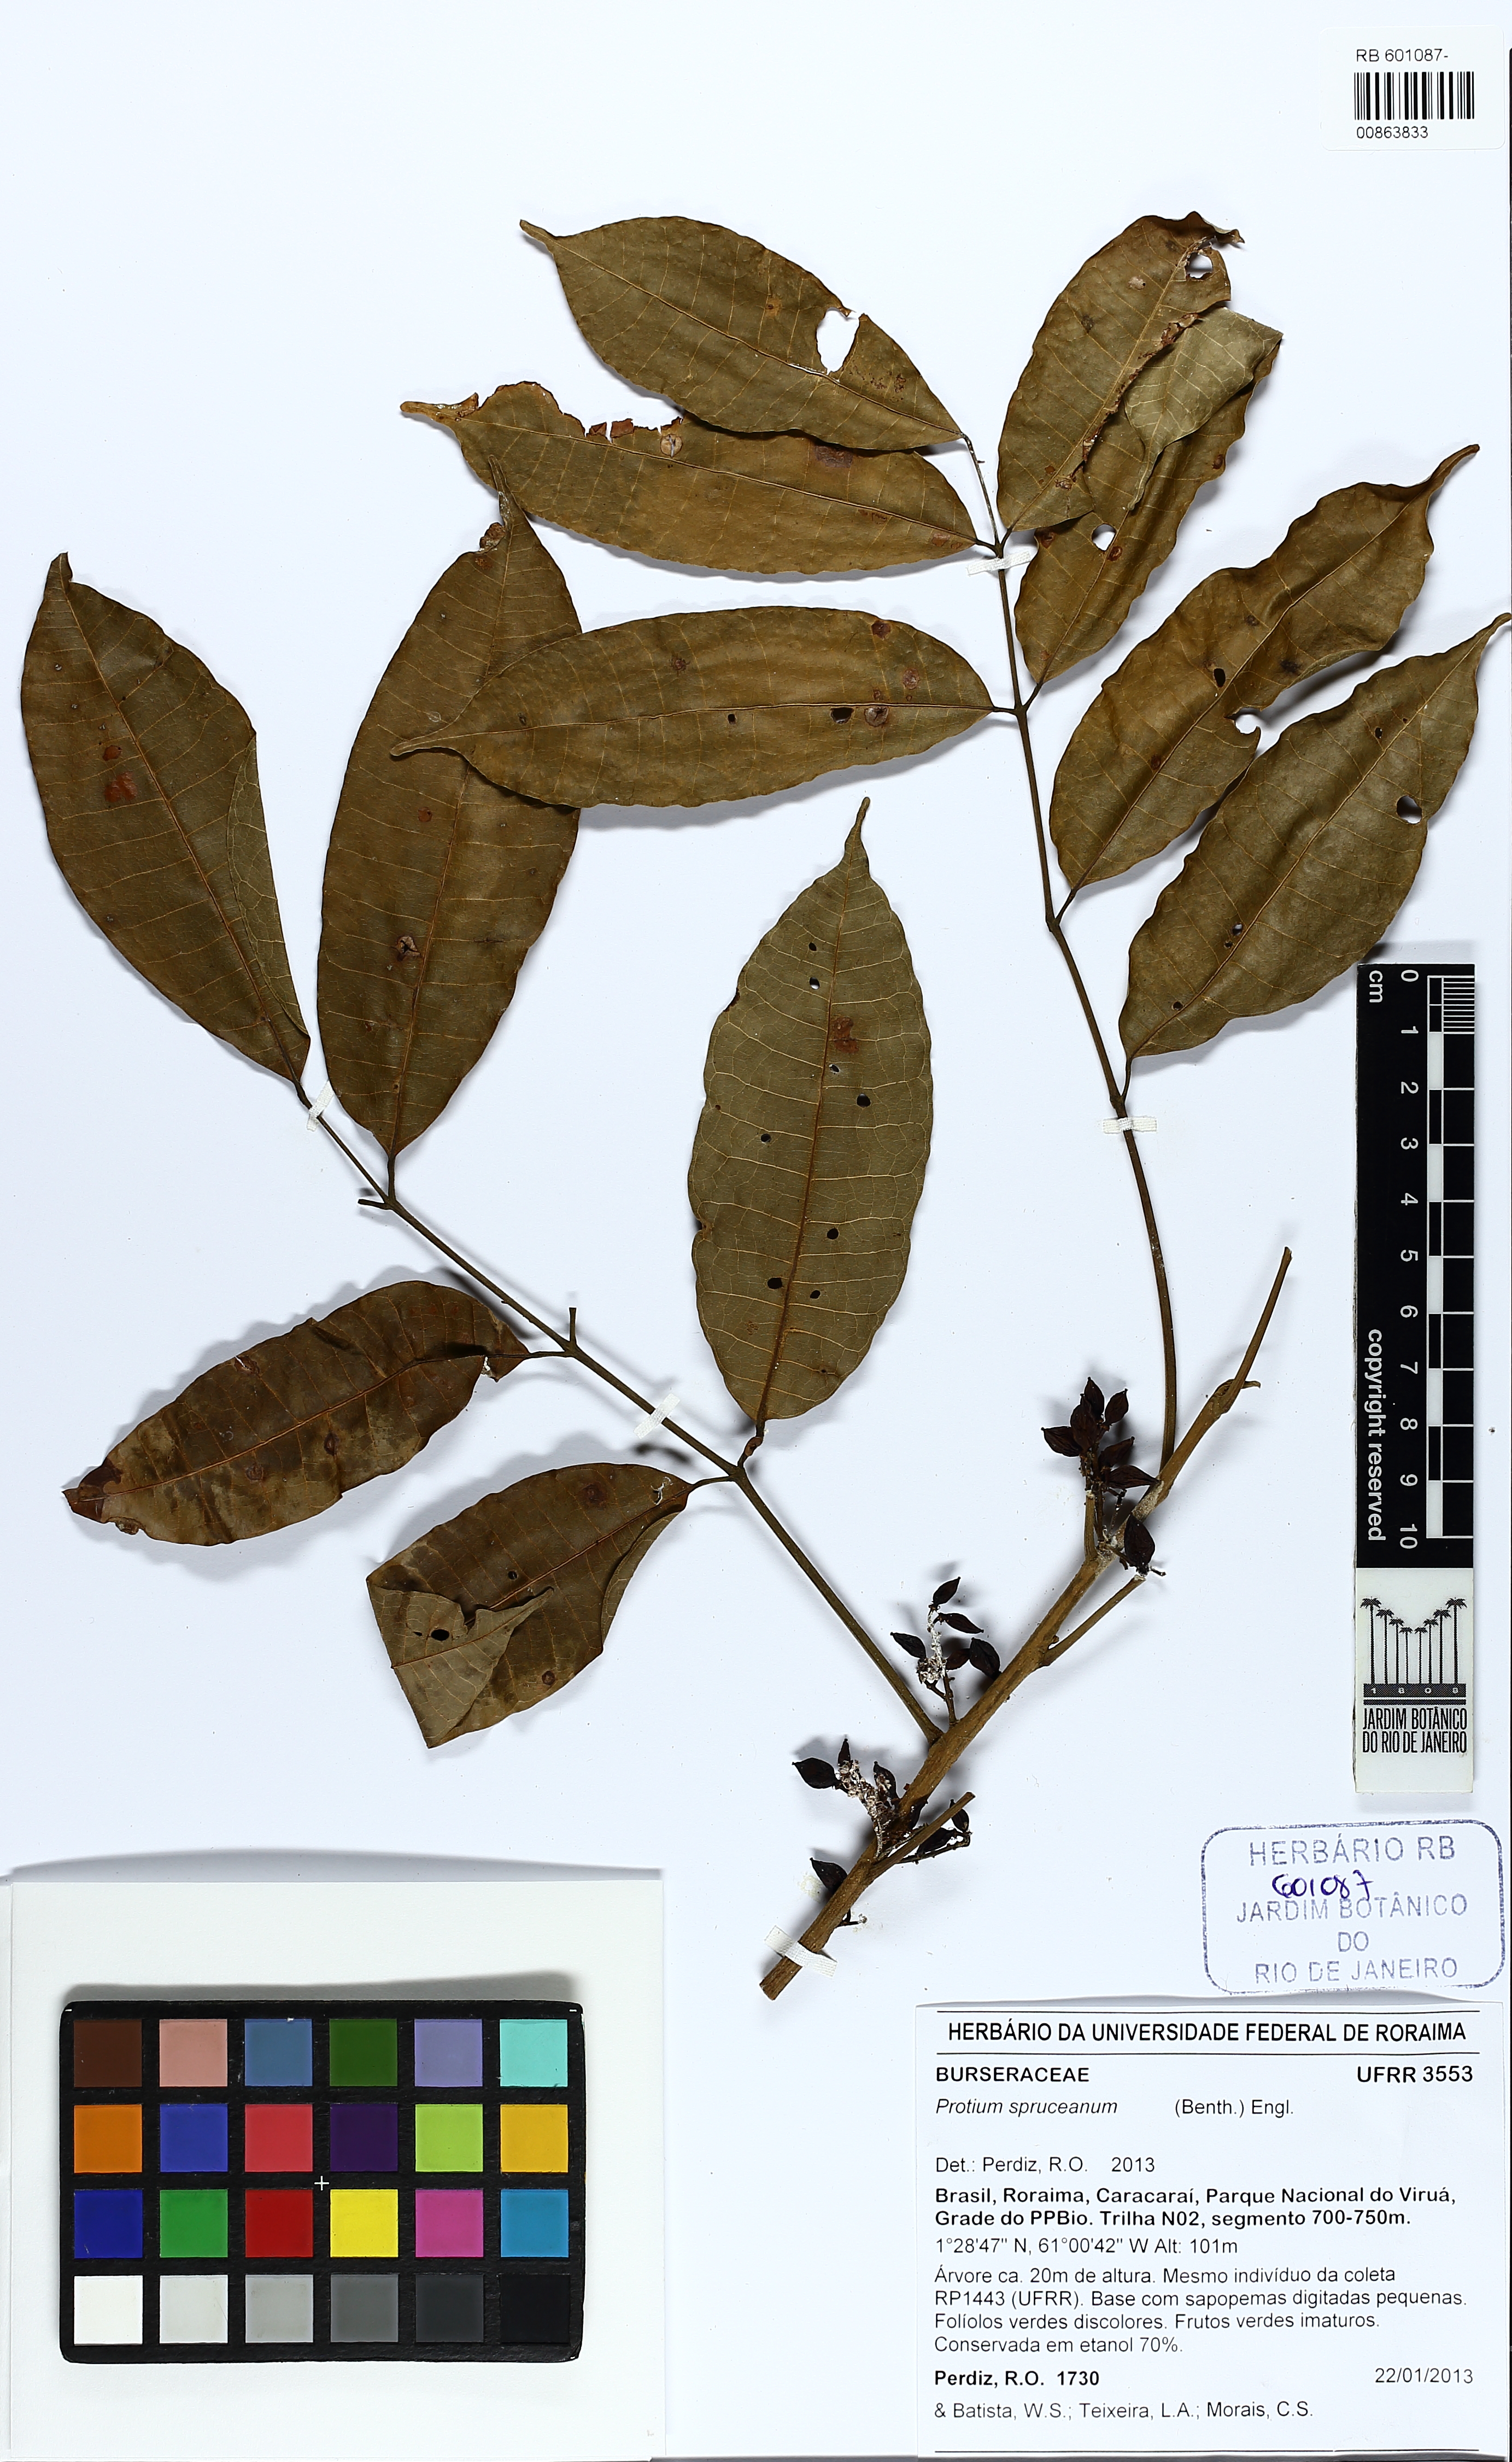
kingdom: Plantae
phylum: Tracheophyta
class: Magnoliopsida
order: Sapindales
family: Burseraceae
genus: Protium
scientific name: Protium spruceanum
